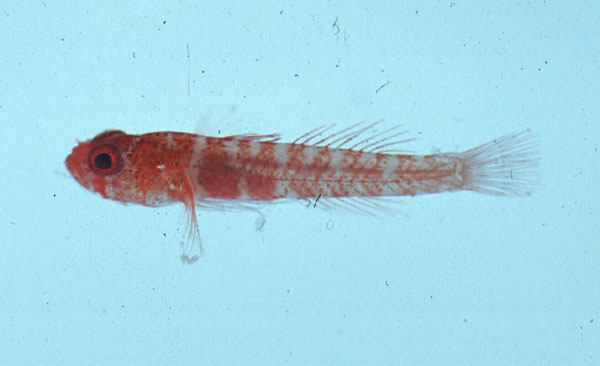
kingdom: Animalia
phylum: Chordata
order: Perciformes
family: Gobiidae
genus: Trimmatom
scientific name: Trimmatom nanus
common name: Atom goby
